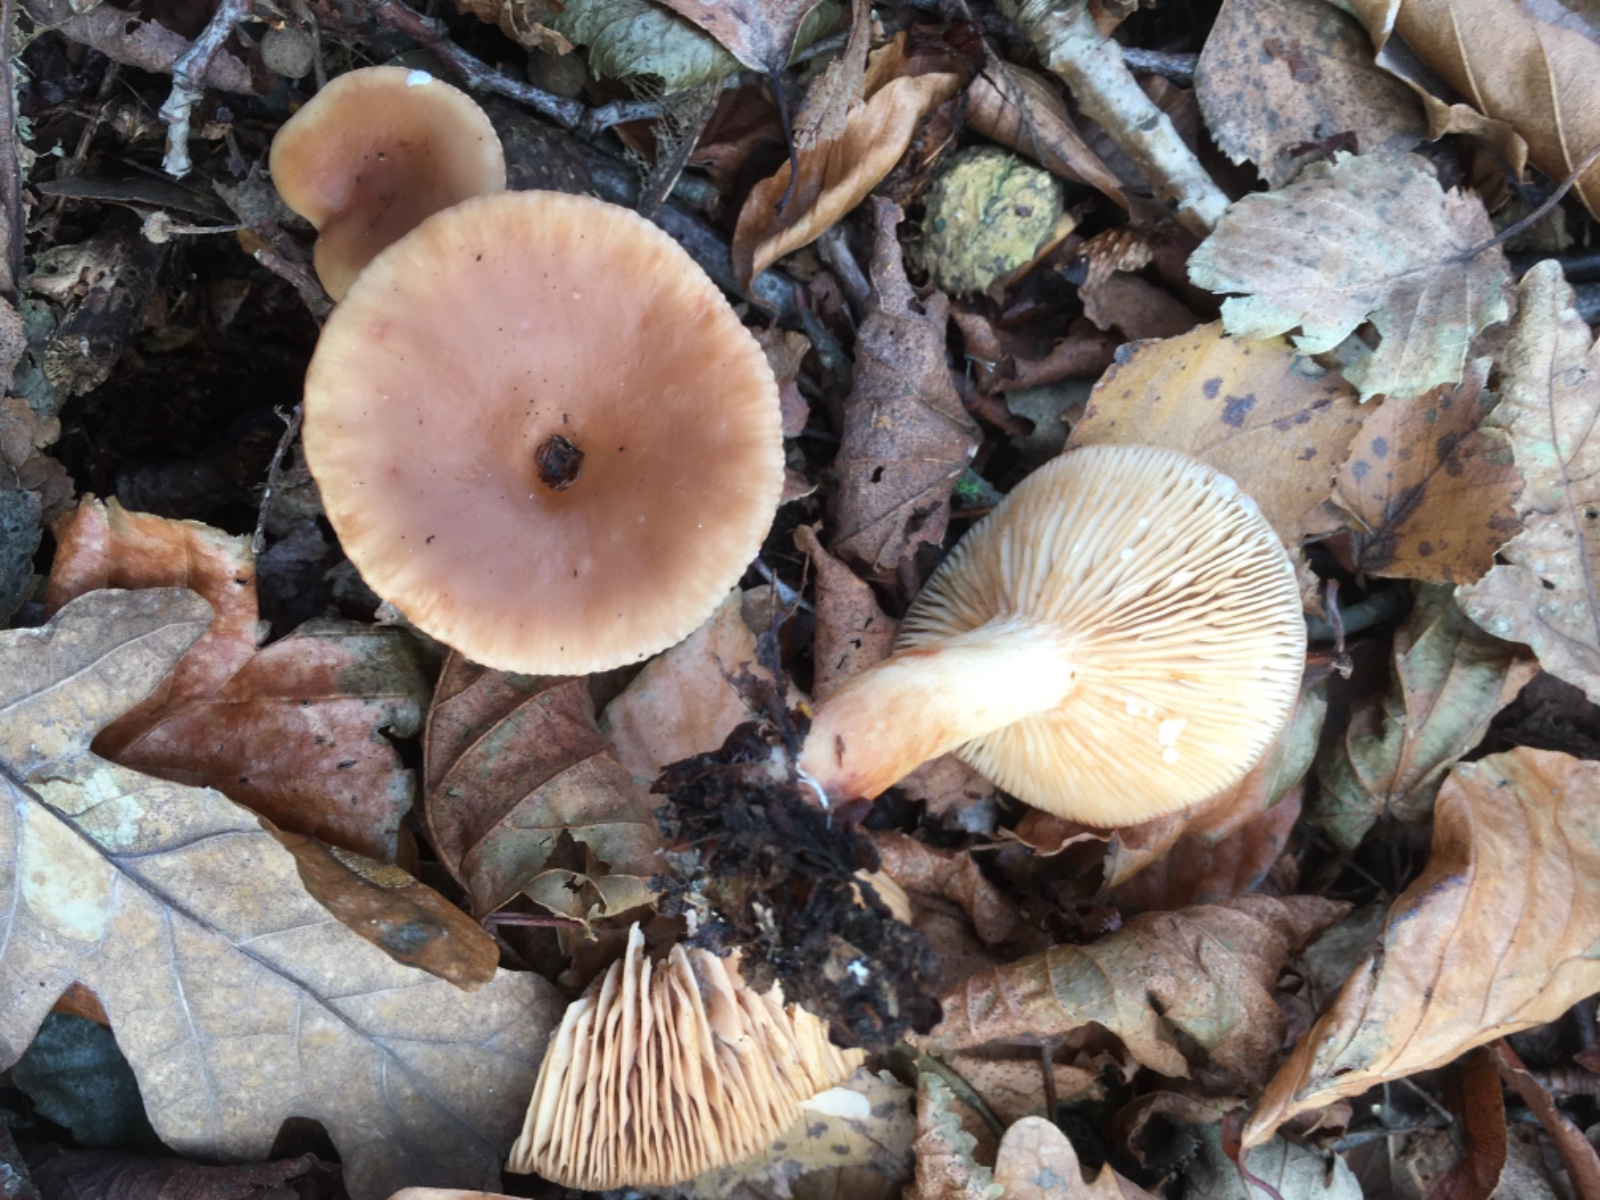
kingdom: Fungi
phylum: Basidiomycota
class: Agaricomycetes
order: Russulales
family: Russulaceae
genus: Lactarius
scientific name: Lactarius subdulcis
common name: sødlig mælkehat
